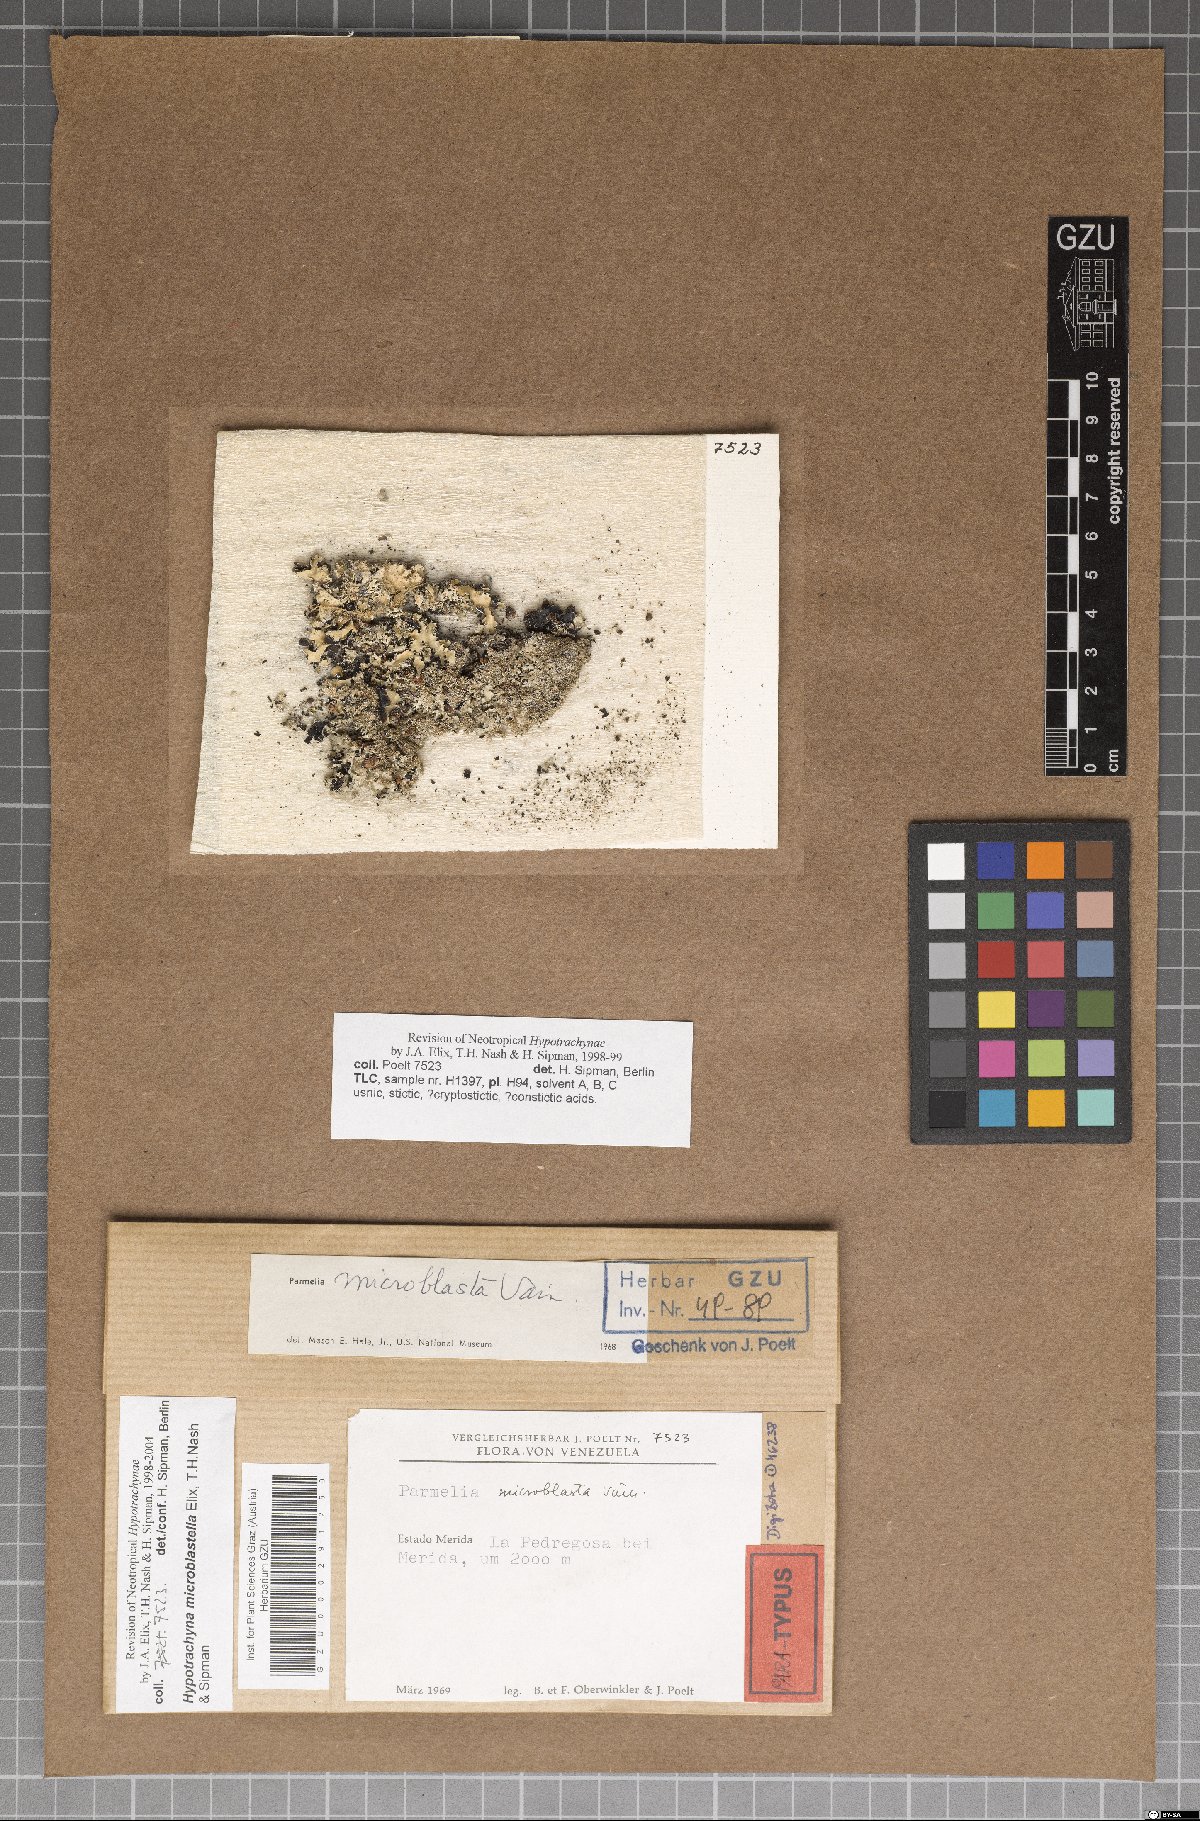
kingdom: Fungi
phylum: Ascomycota
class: Lecanoromycetes
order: Lecanorales
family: Parmeliaceae
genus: Hypotrachyna
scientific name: Hypotrachyna microblastella
